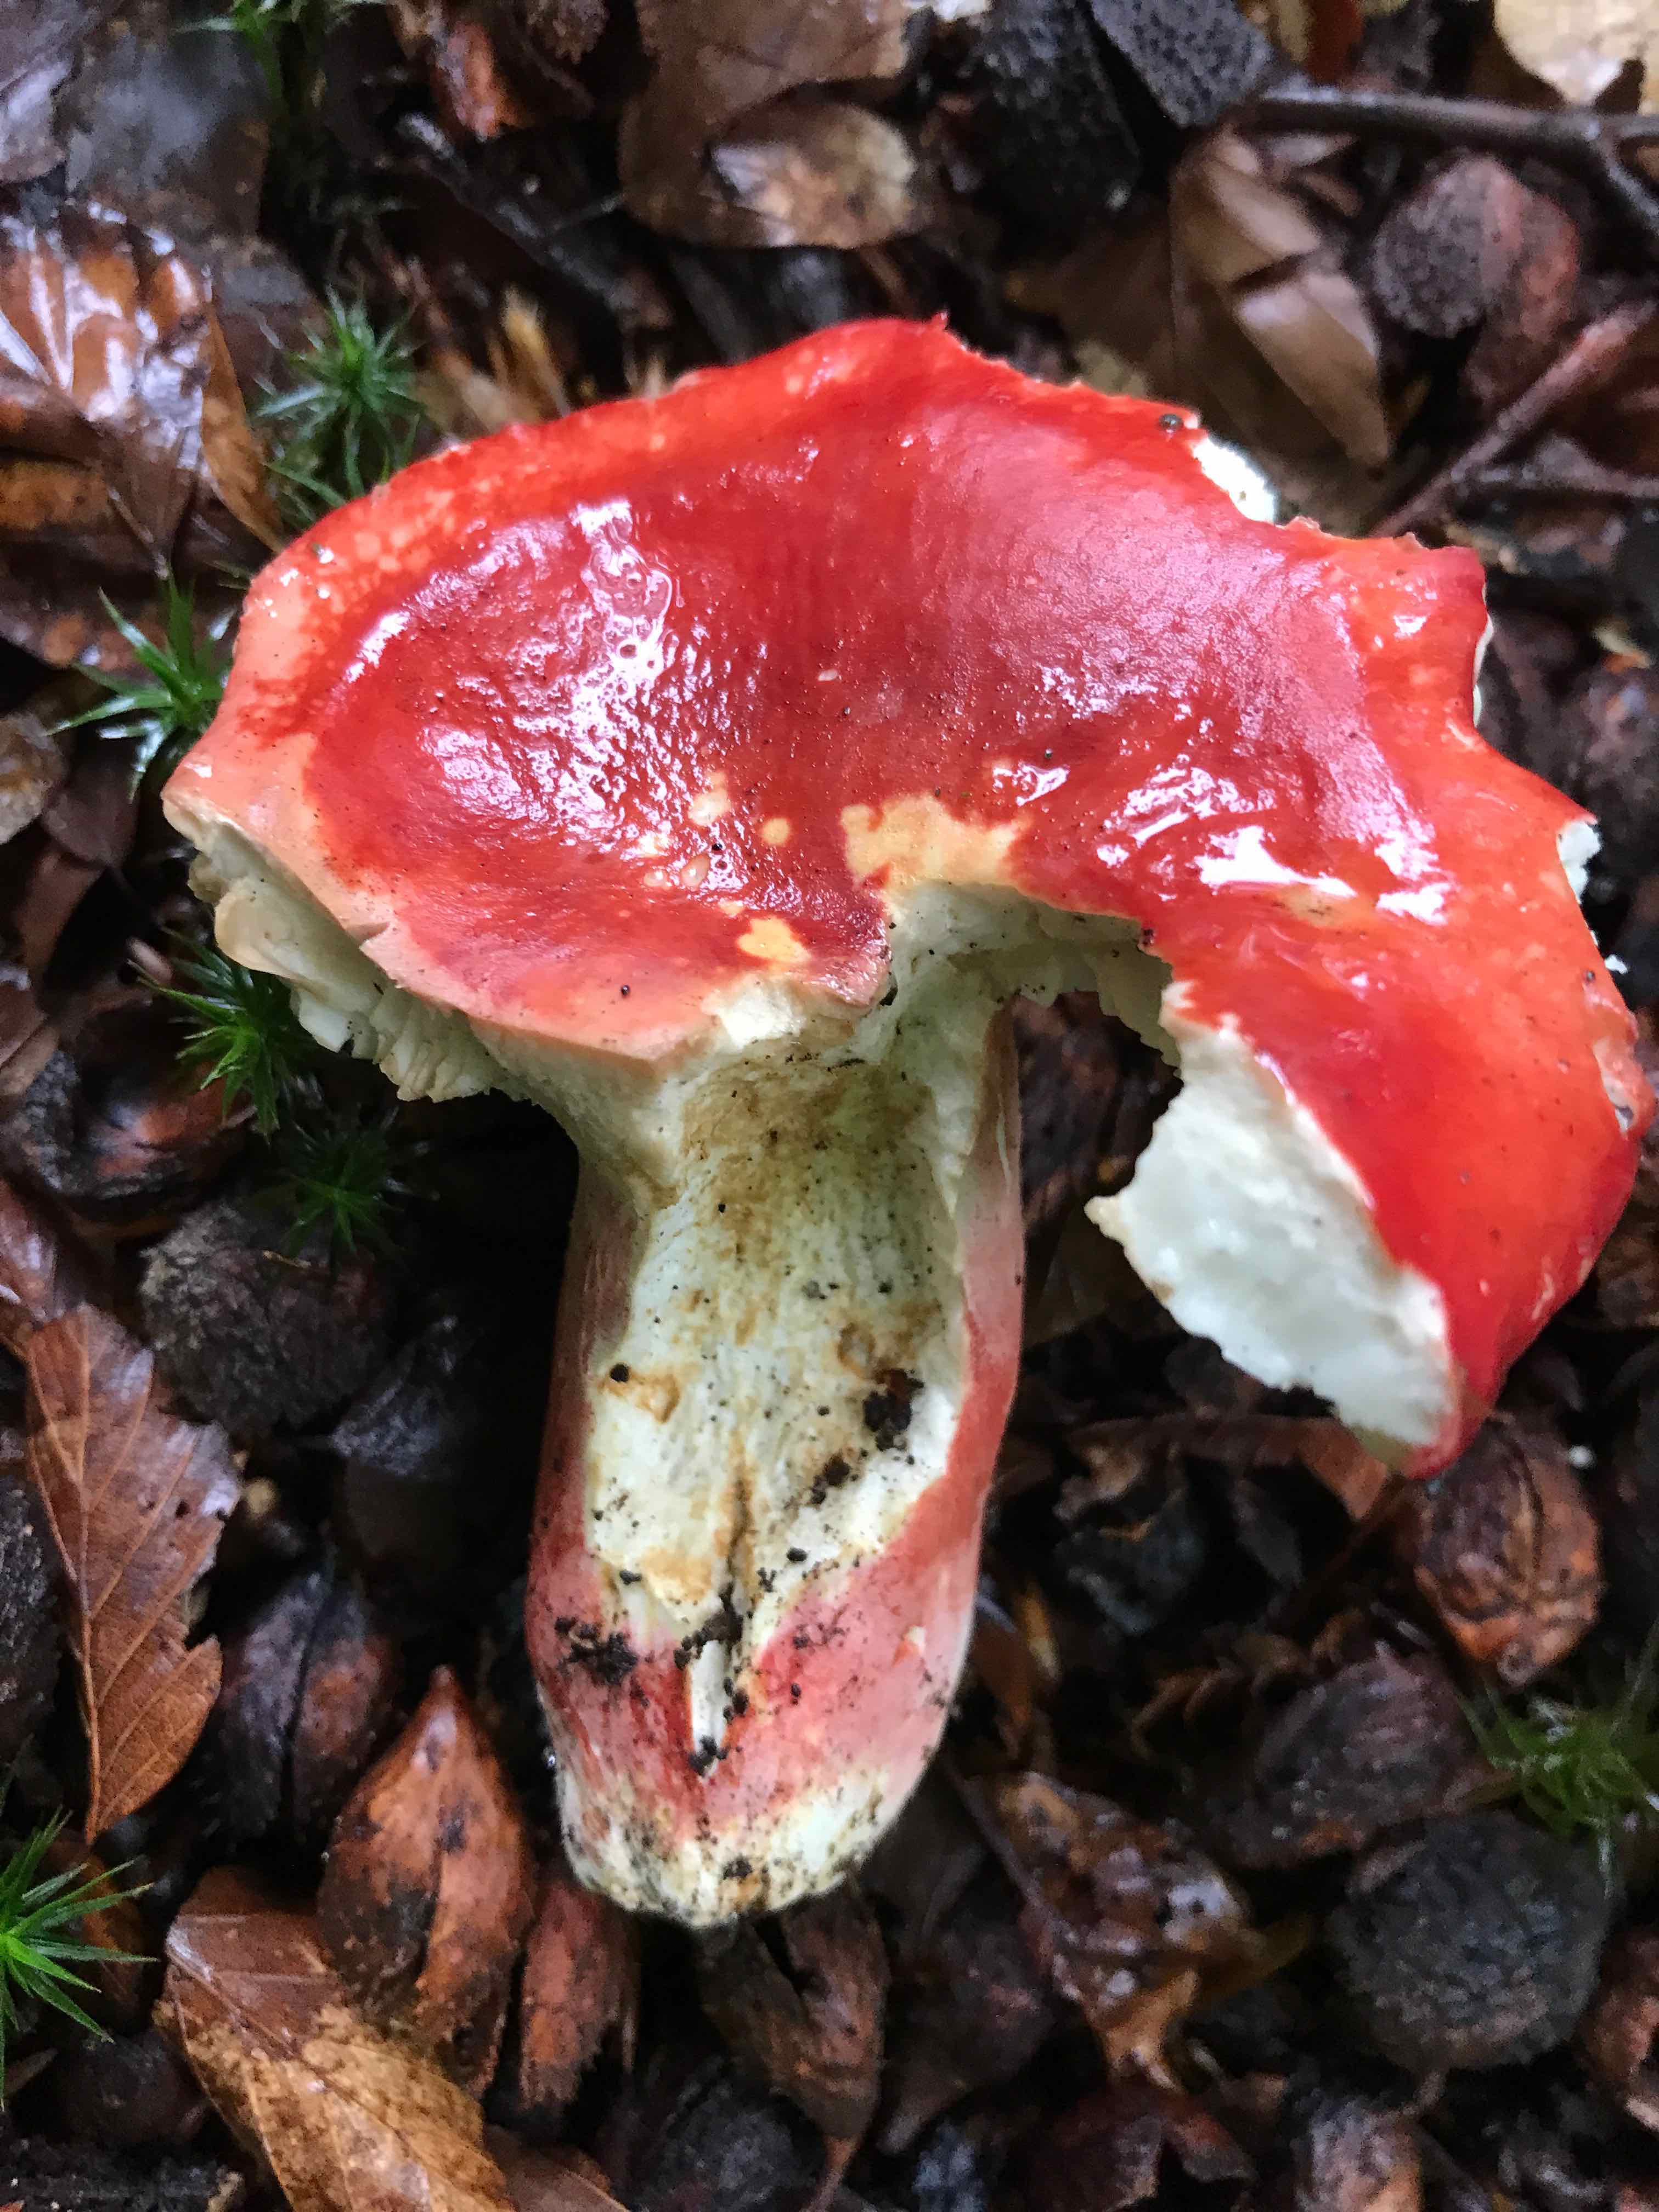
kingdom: Fungi
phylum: Basidiomycota
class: Agaricomycetes
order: Russulales
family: Russulaceae
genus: Russula
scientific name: Russula rosea
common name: fastkødet skørhat
